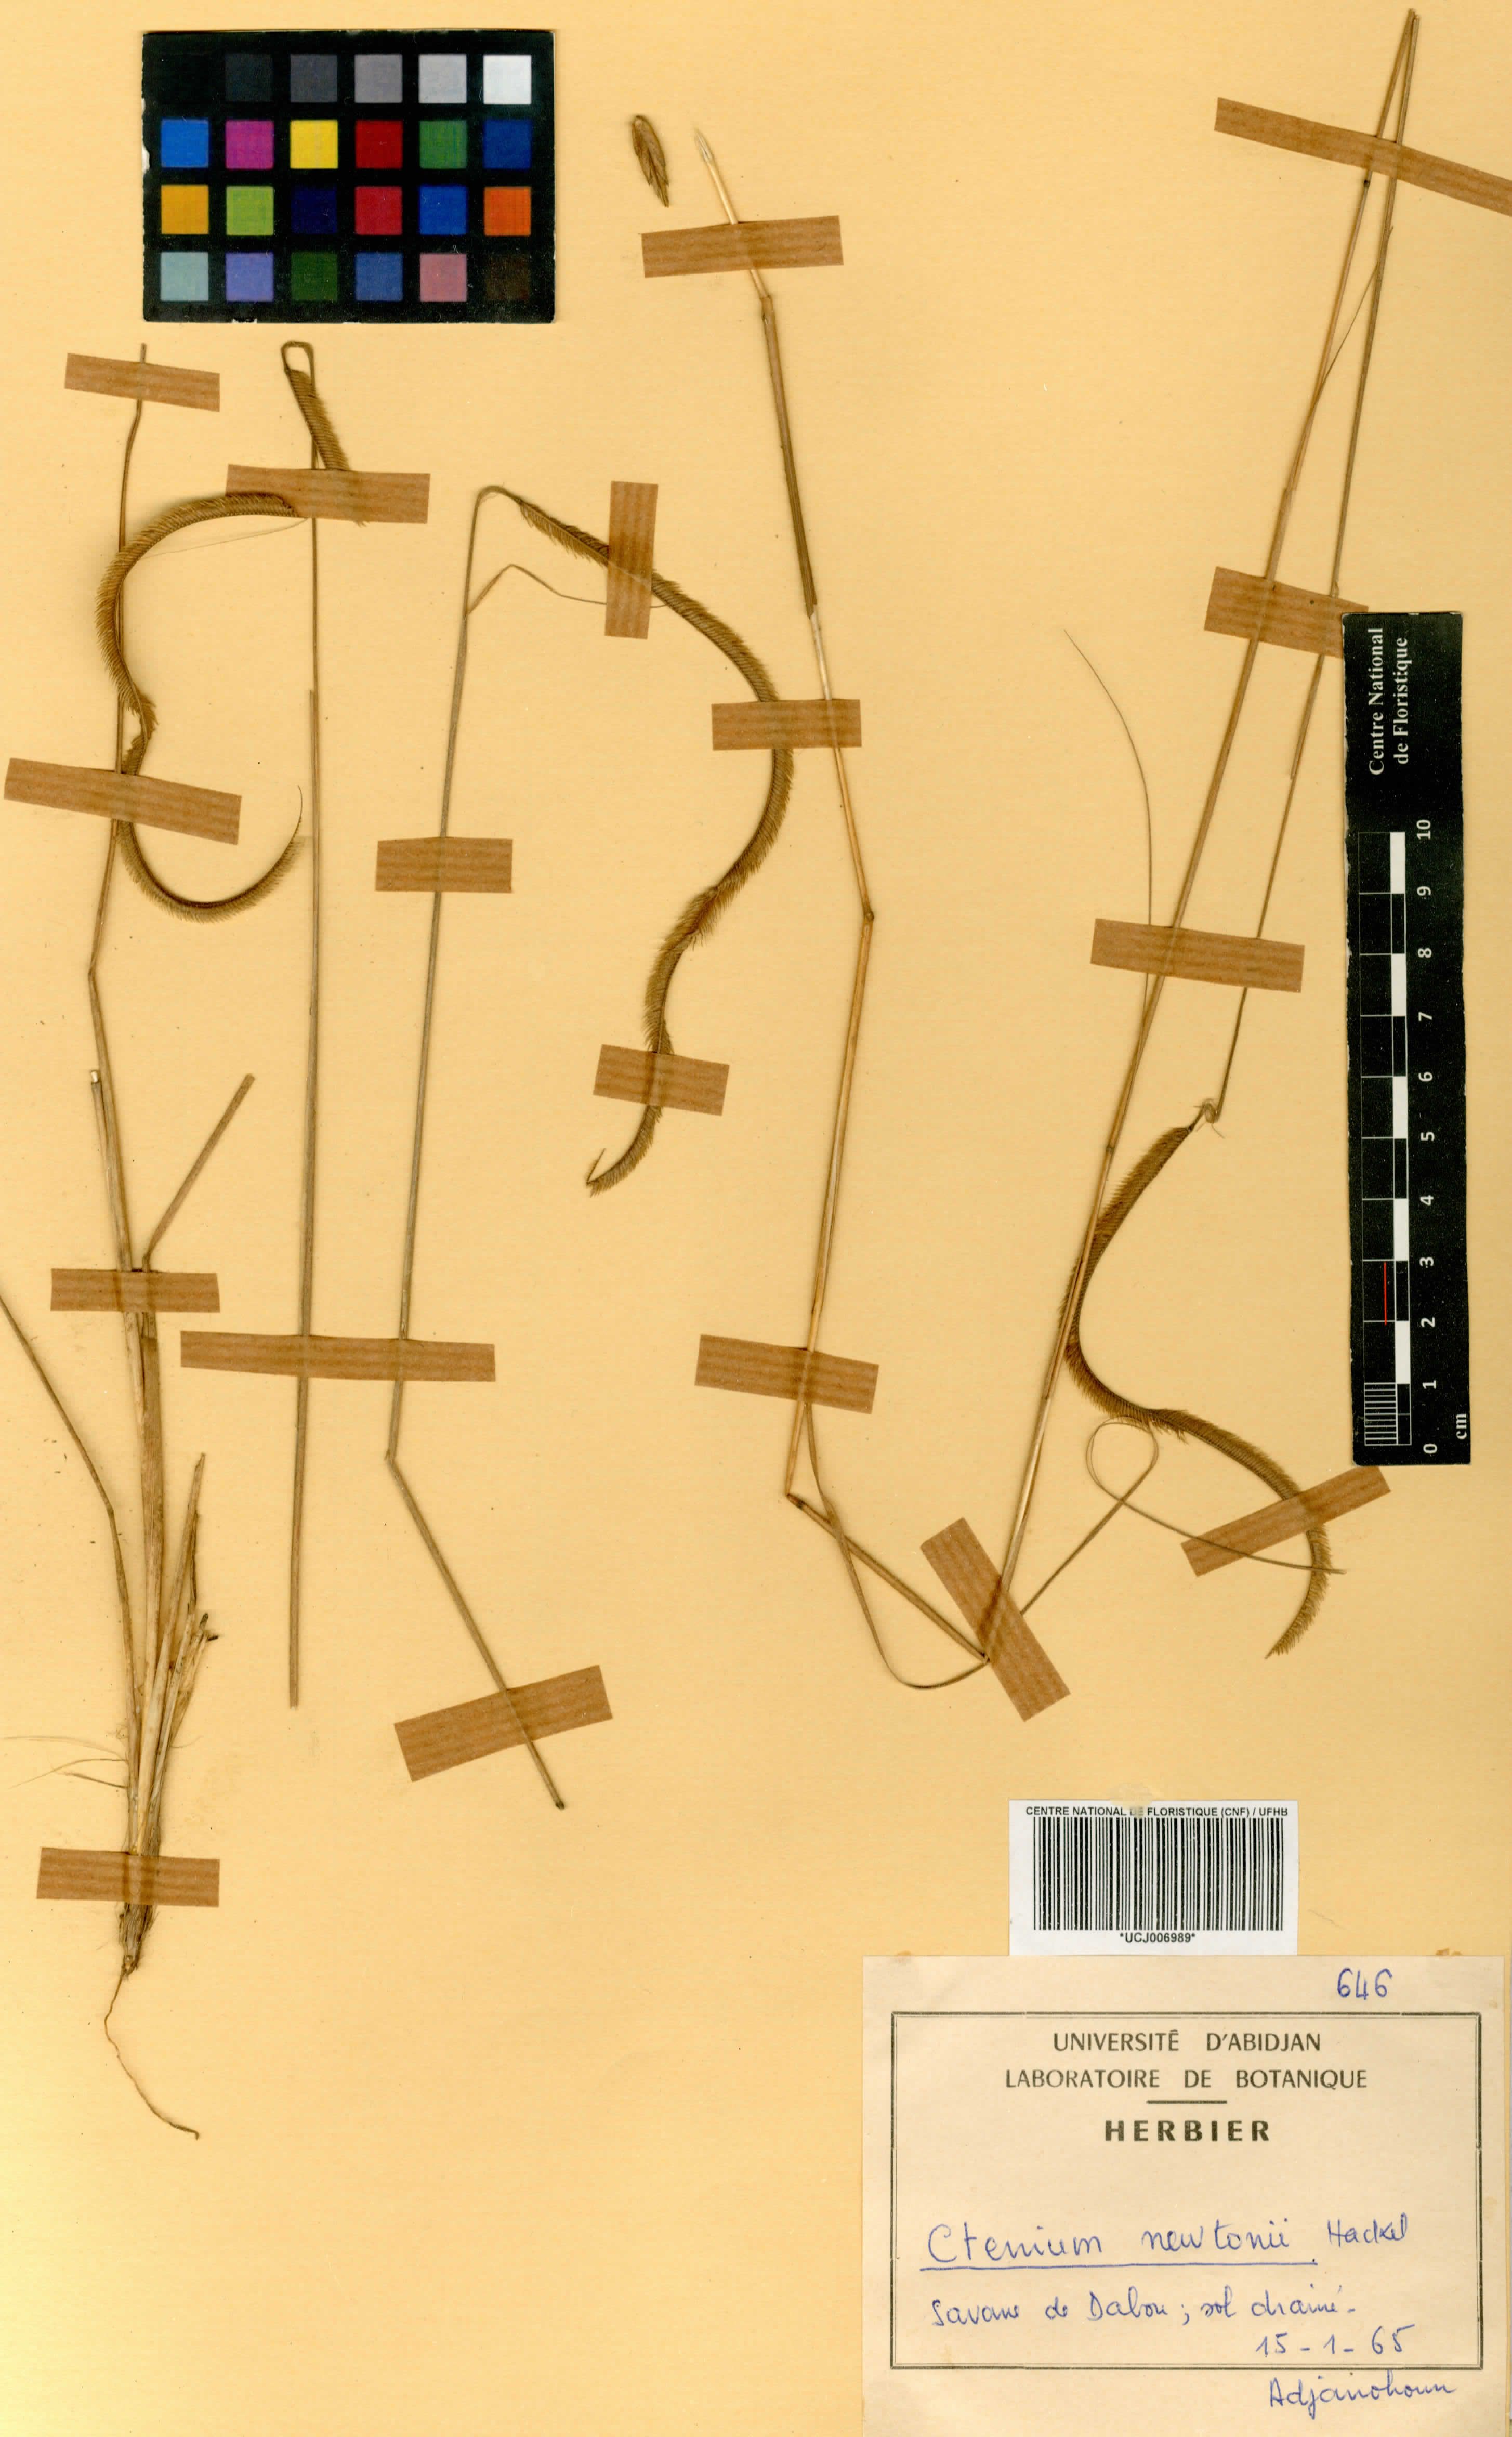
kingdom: Plantae
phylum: Tracheophyta
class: Liliopsida
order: Poales
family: Poaceae
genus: Ctenium
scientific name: Ctenium newtonii
